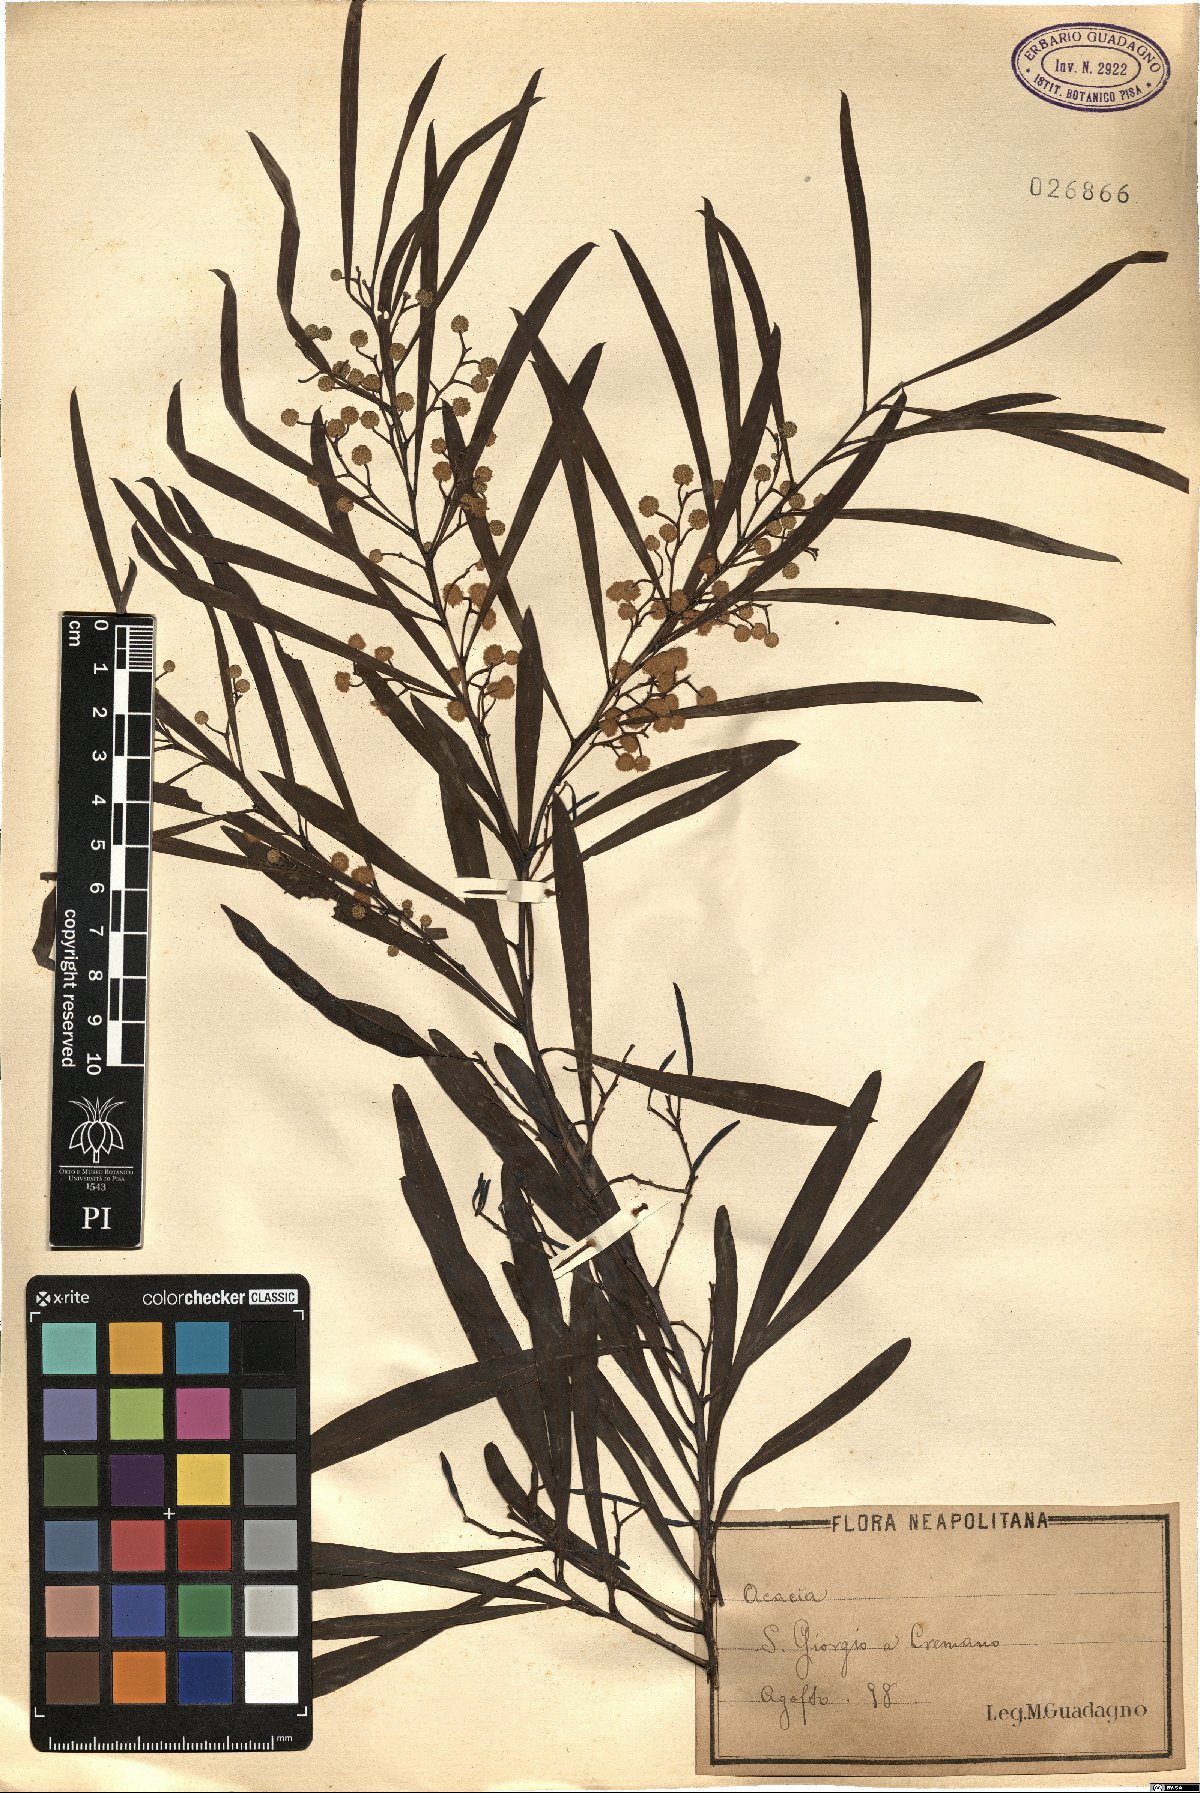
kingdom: Plantae
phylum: Tracheophyta
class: Magnoliopsida
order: Fabales
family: Fabaceae
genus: Acacia
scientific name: Acacia
